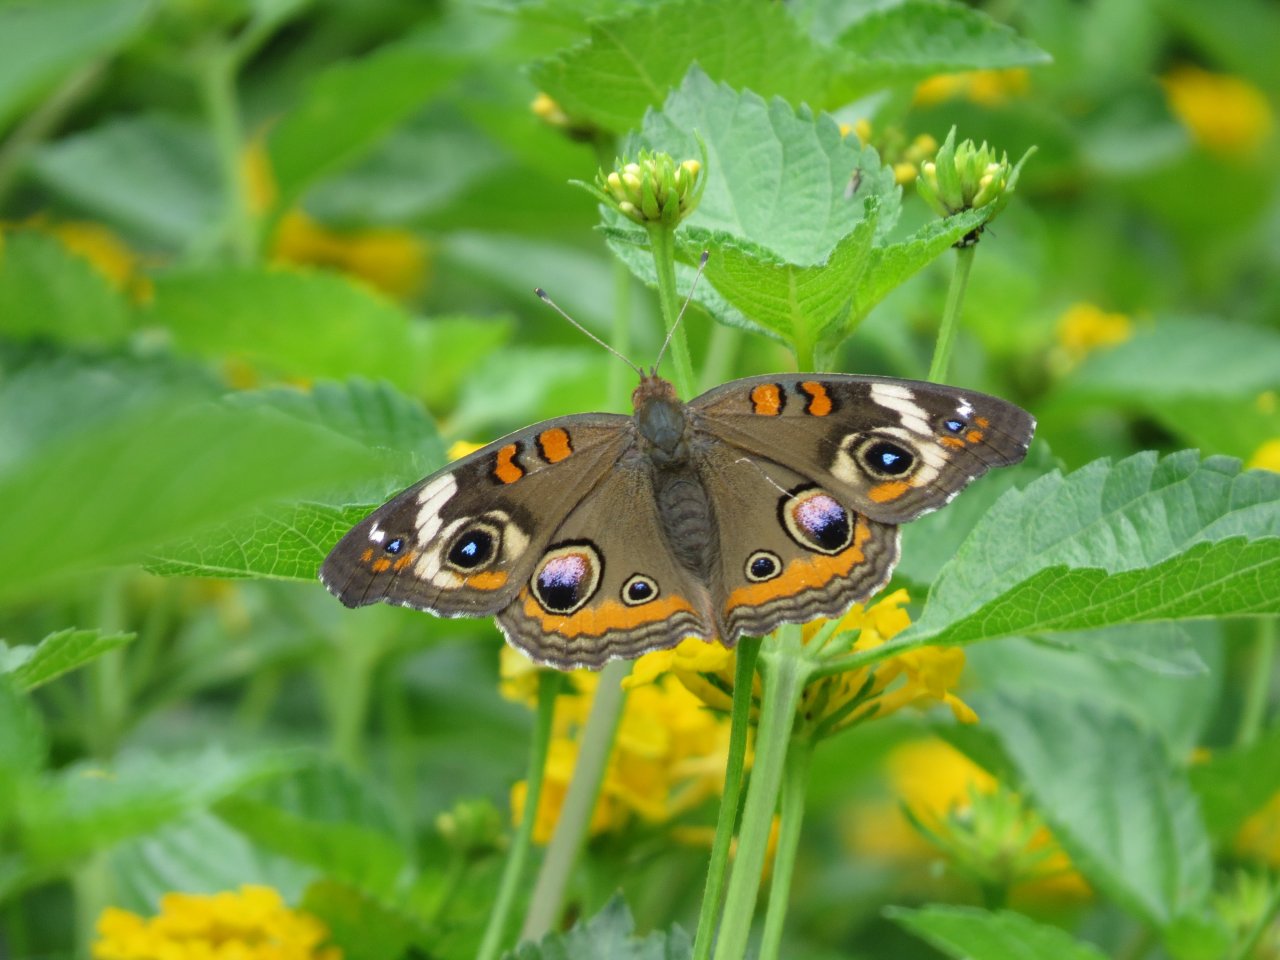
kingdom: Animalia
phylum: Arthropoda
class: Insecta
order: Lepidoptera
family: Nymphalidae
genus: Junonia
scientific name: Junonia coenia
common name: Common Buckeye
